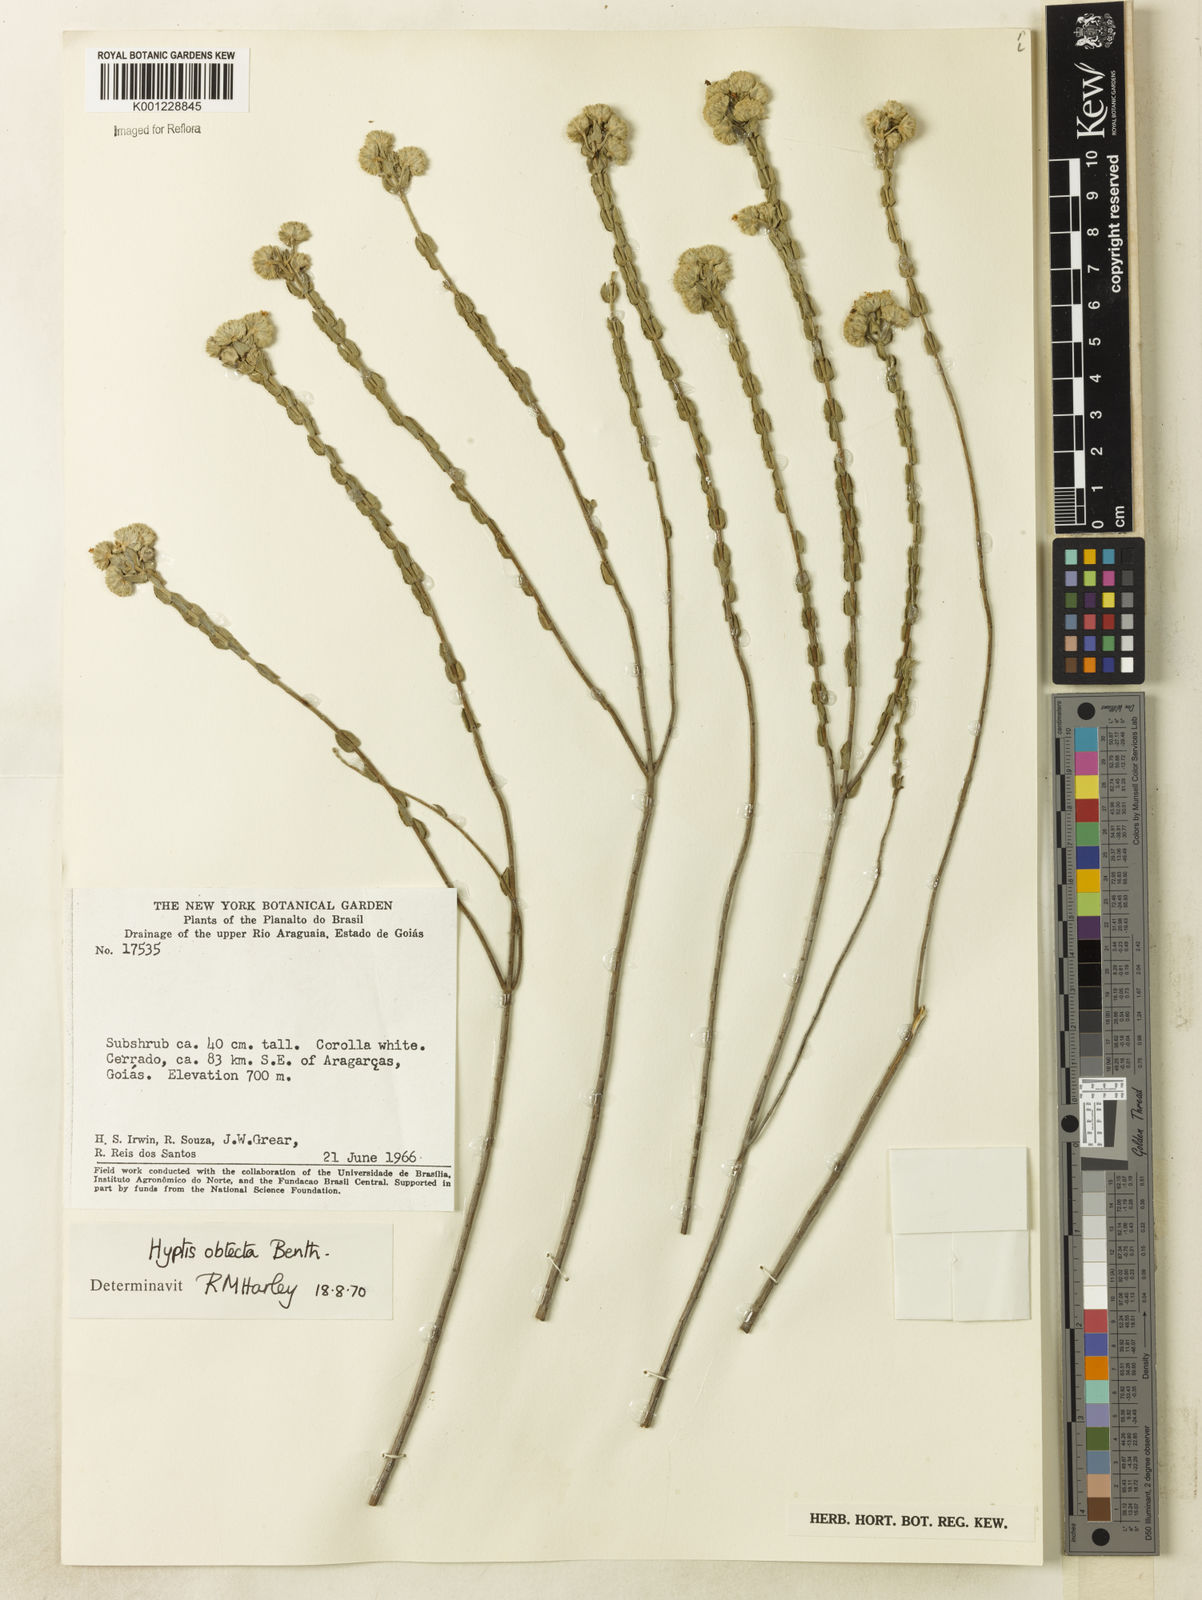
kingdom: Plantae
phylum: Tracheophyta
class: Magnoliopsida
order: Lamiales
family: Lamiaceae
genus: Hyptis
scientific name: Hyptis obtecta
